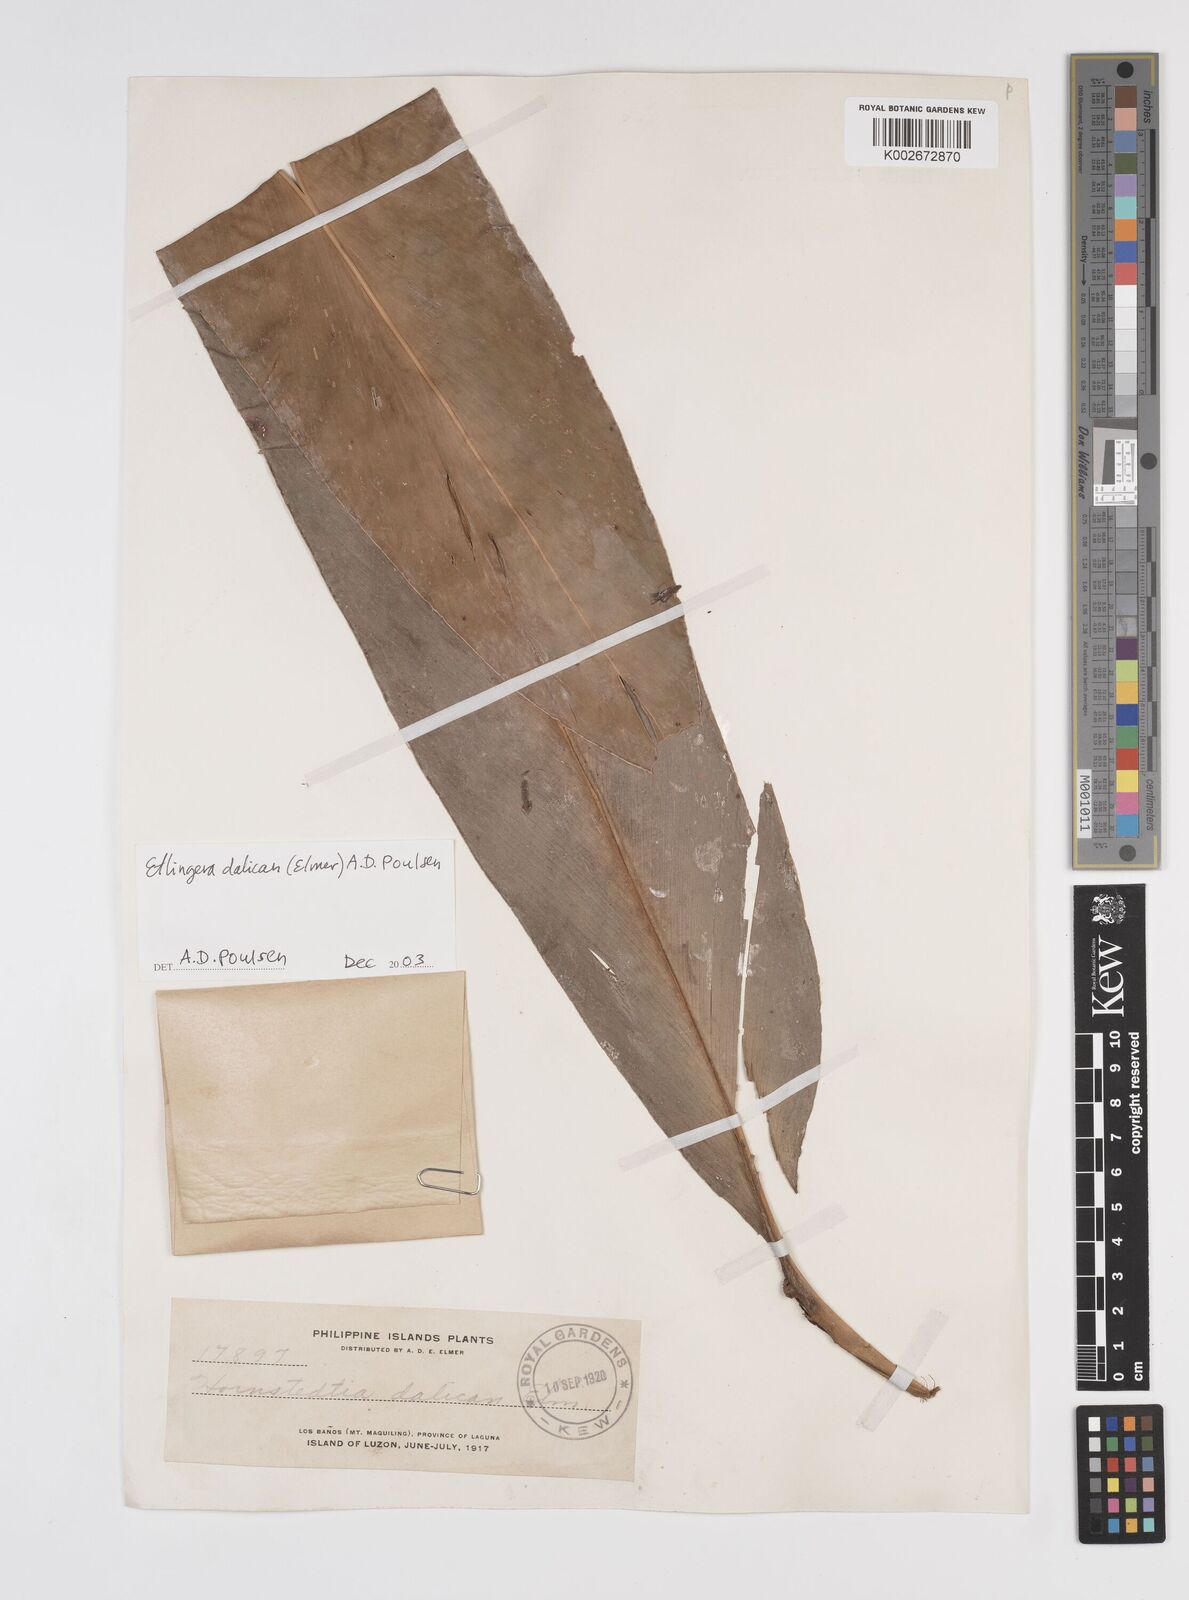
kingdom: Plantae
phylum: Tracheophyta
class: Liliopsida
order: Zingiberales
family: Zingiberaceae
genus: Etlingera
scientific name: Etlingera dalican
